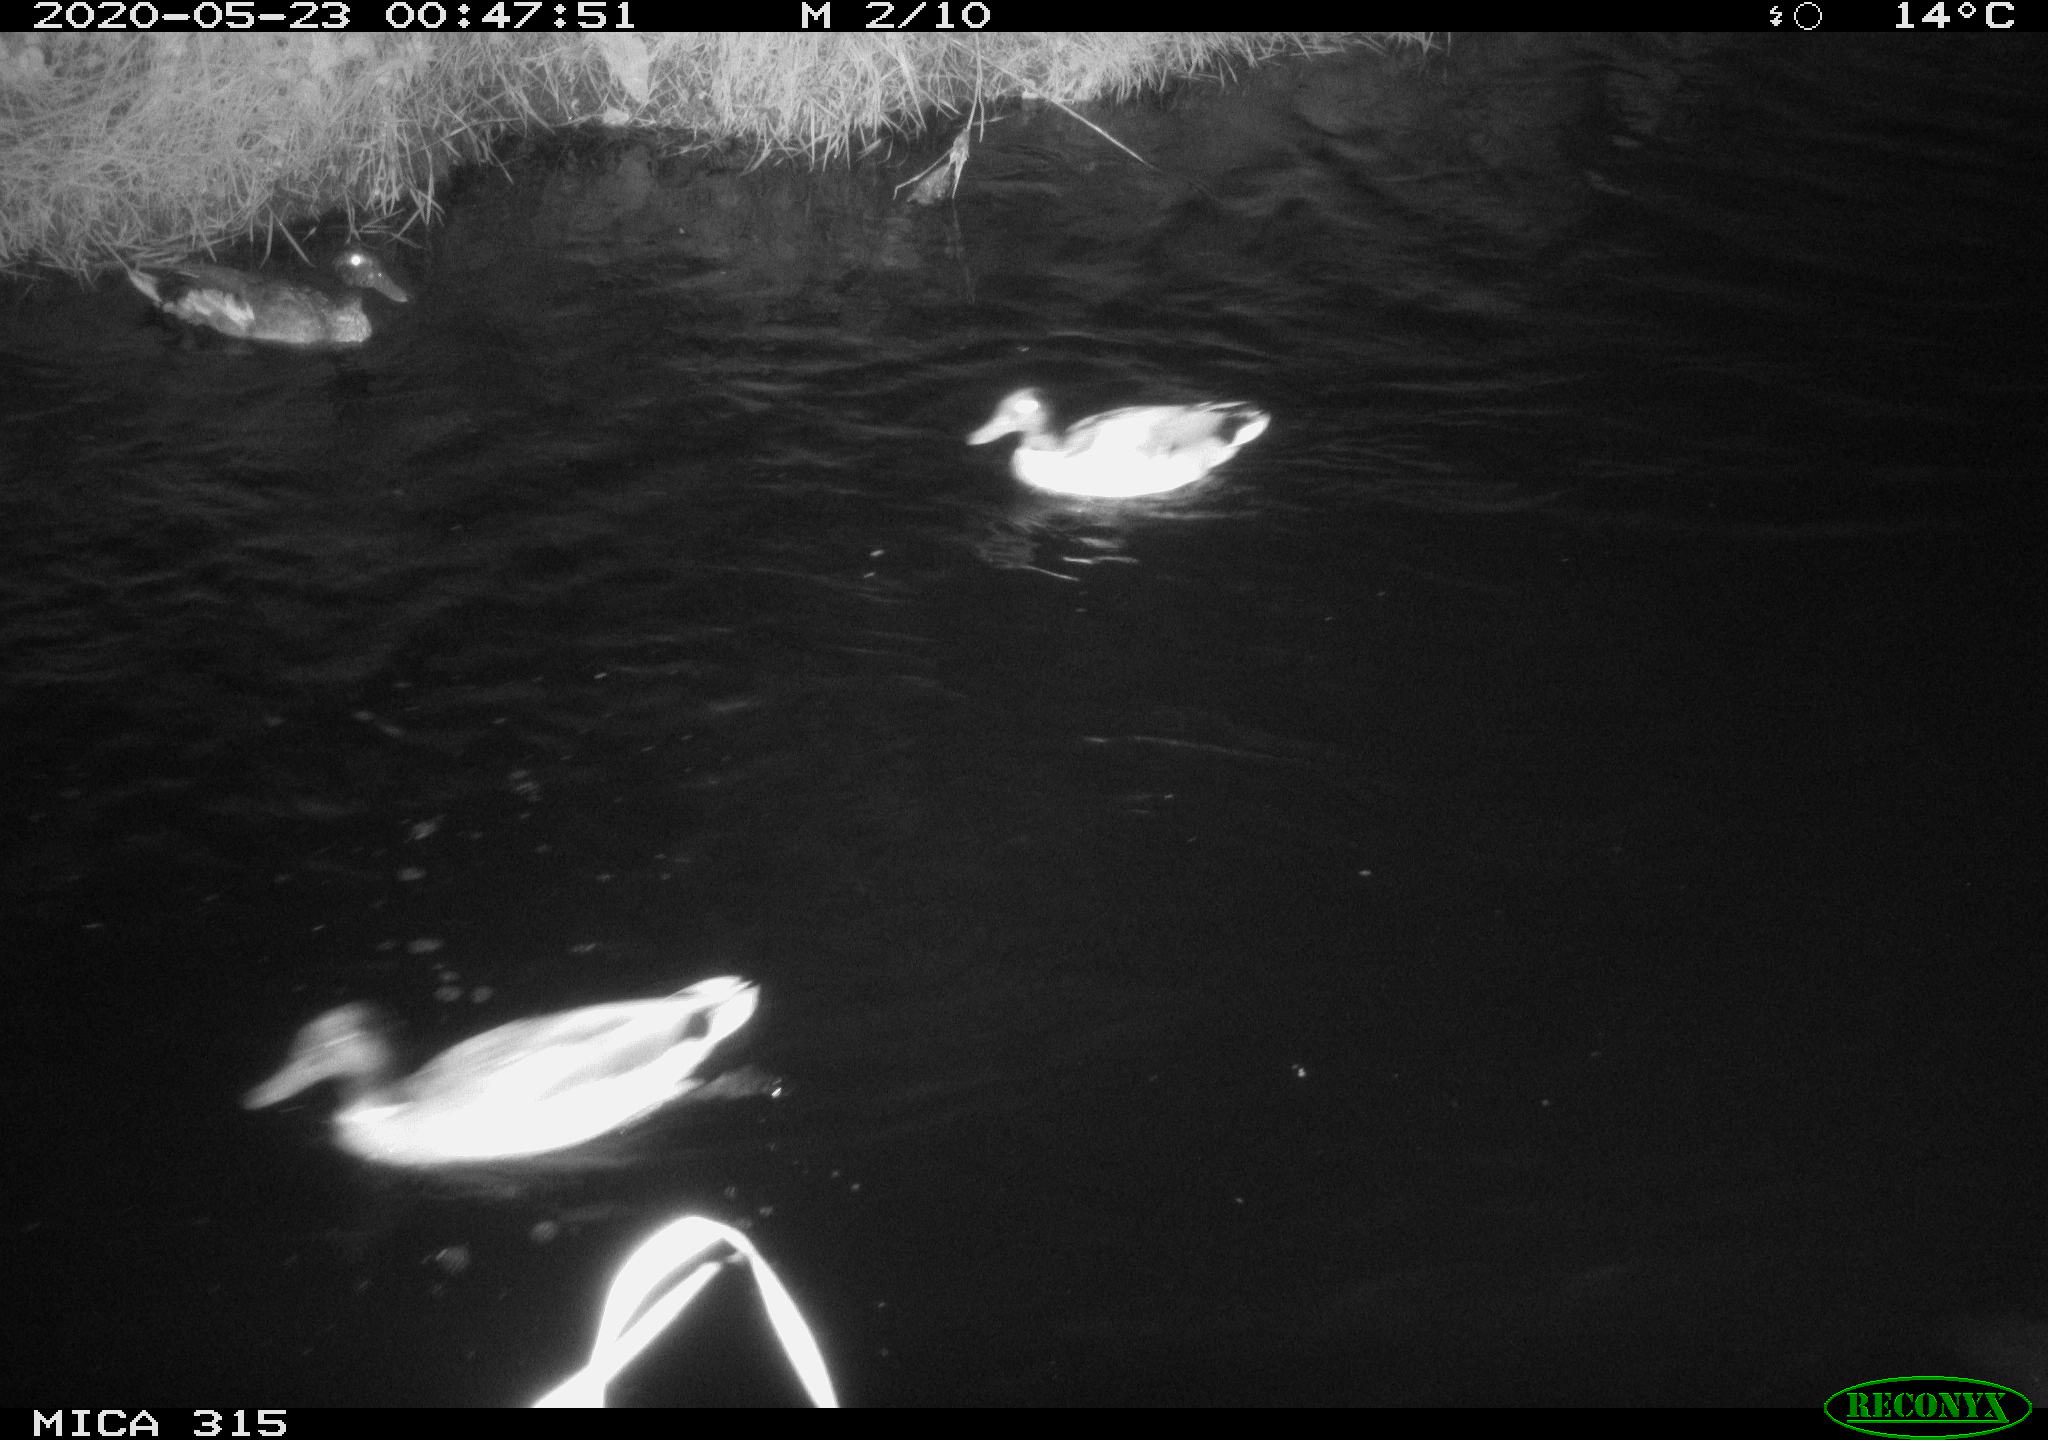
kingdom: Animalia
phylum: Chordata
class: Aves
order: Anseriformes
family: Anatidae
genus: Anas
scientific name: Anas platyrhynchos
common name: Mallard
